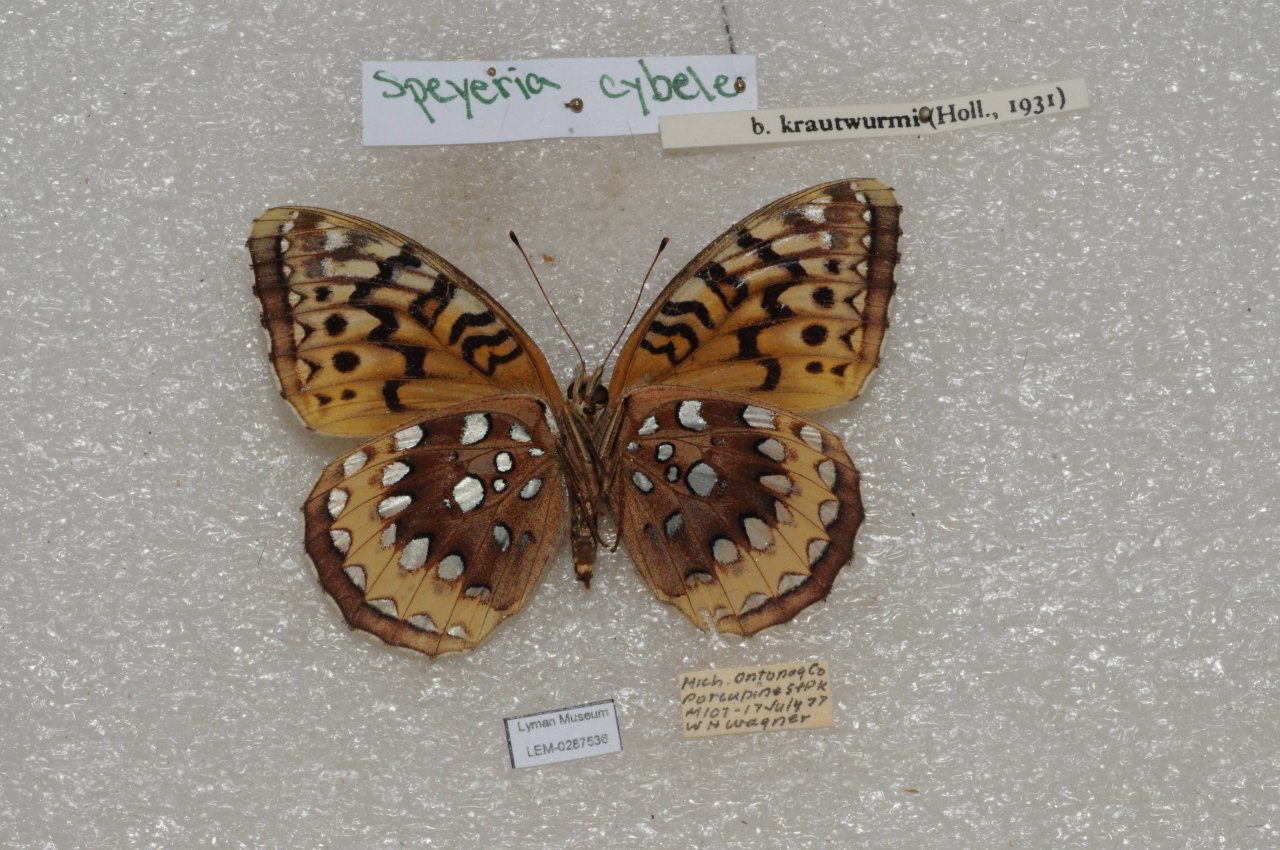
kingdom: Animalia
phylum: Arthropoda
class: Insecta
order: Lepidoptera
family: Nymphalidae
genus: Speyeria
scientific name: Speyeria cybele
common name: Great Spangled Fritillary
